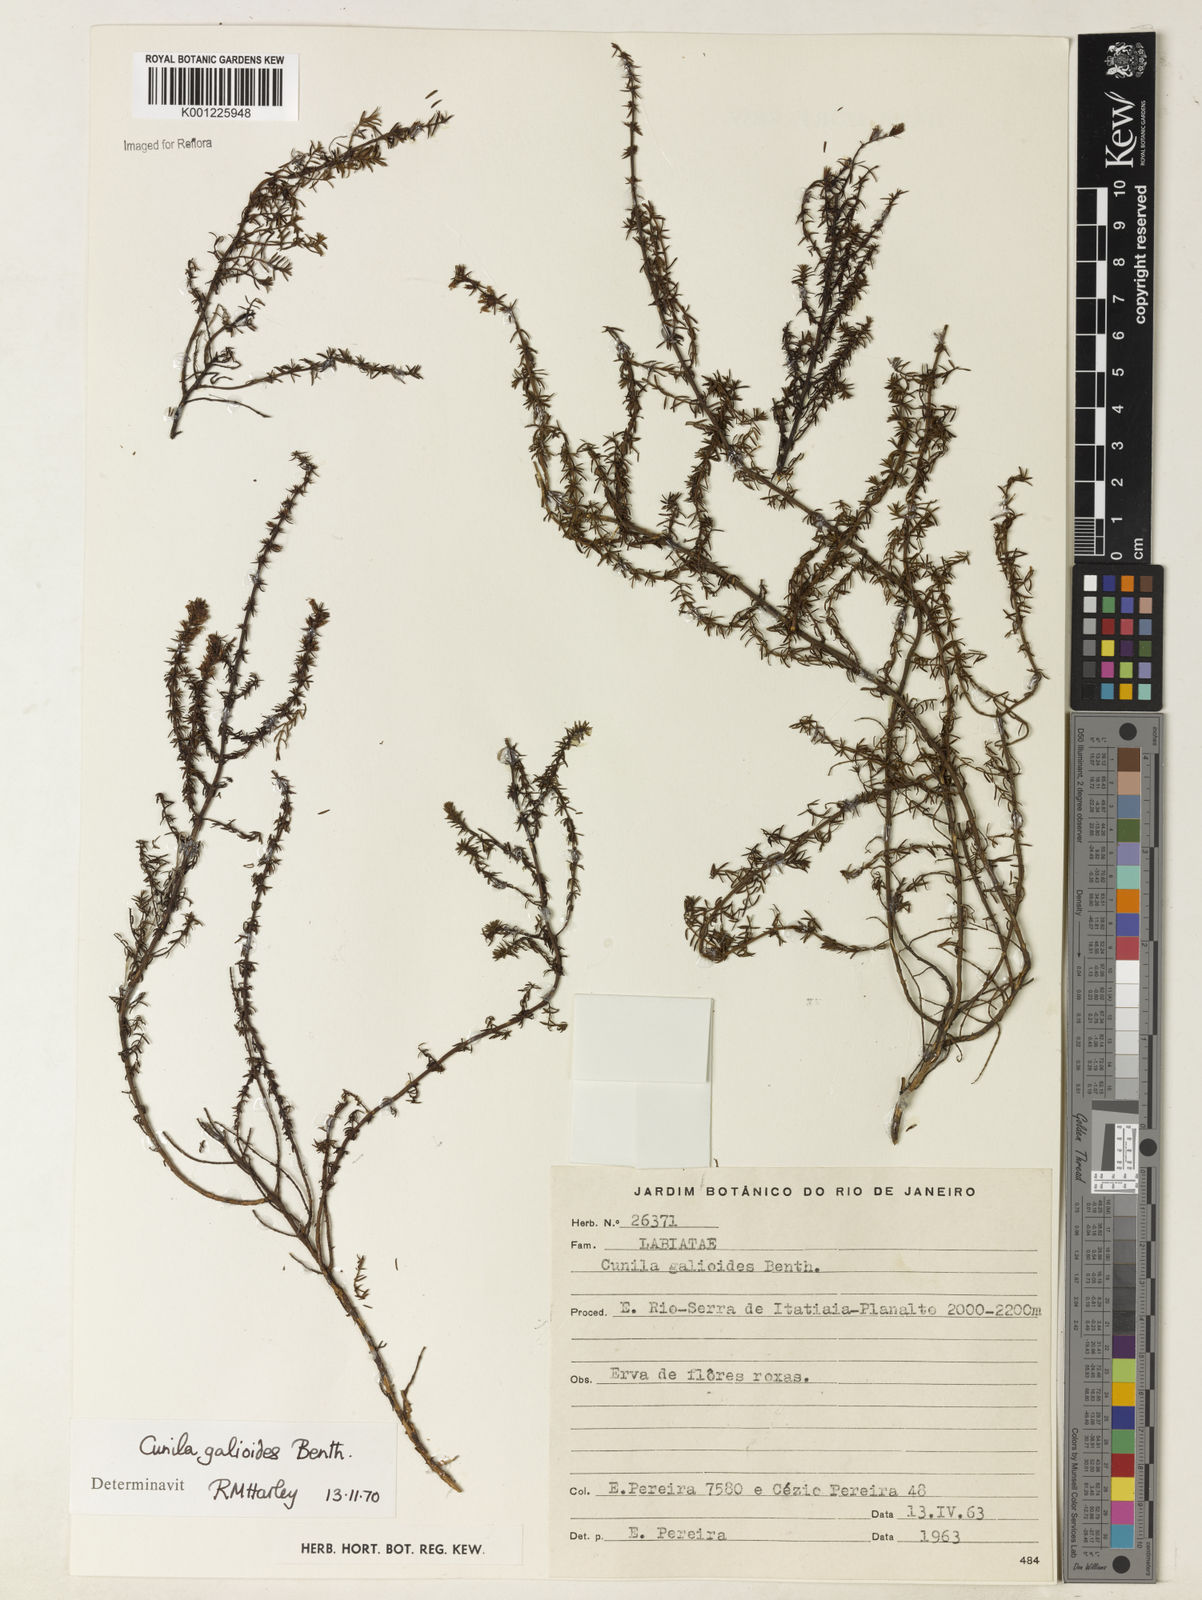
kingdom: Plantae
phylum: Tracheophyta
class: Magnoliopsida
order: Lamiales
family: Lamiaceae
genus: Cunila
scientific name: Cunila galioides
